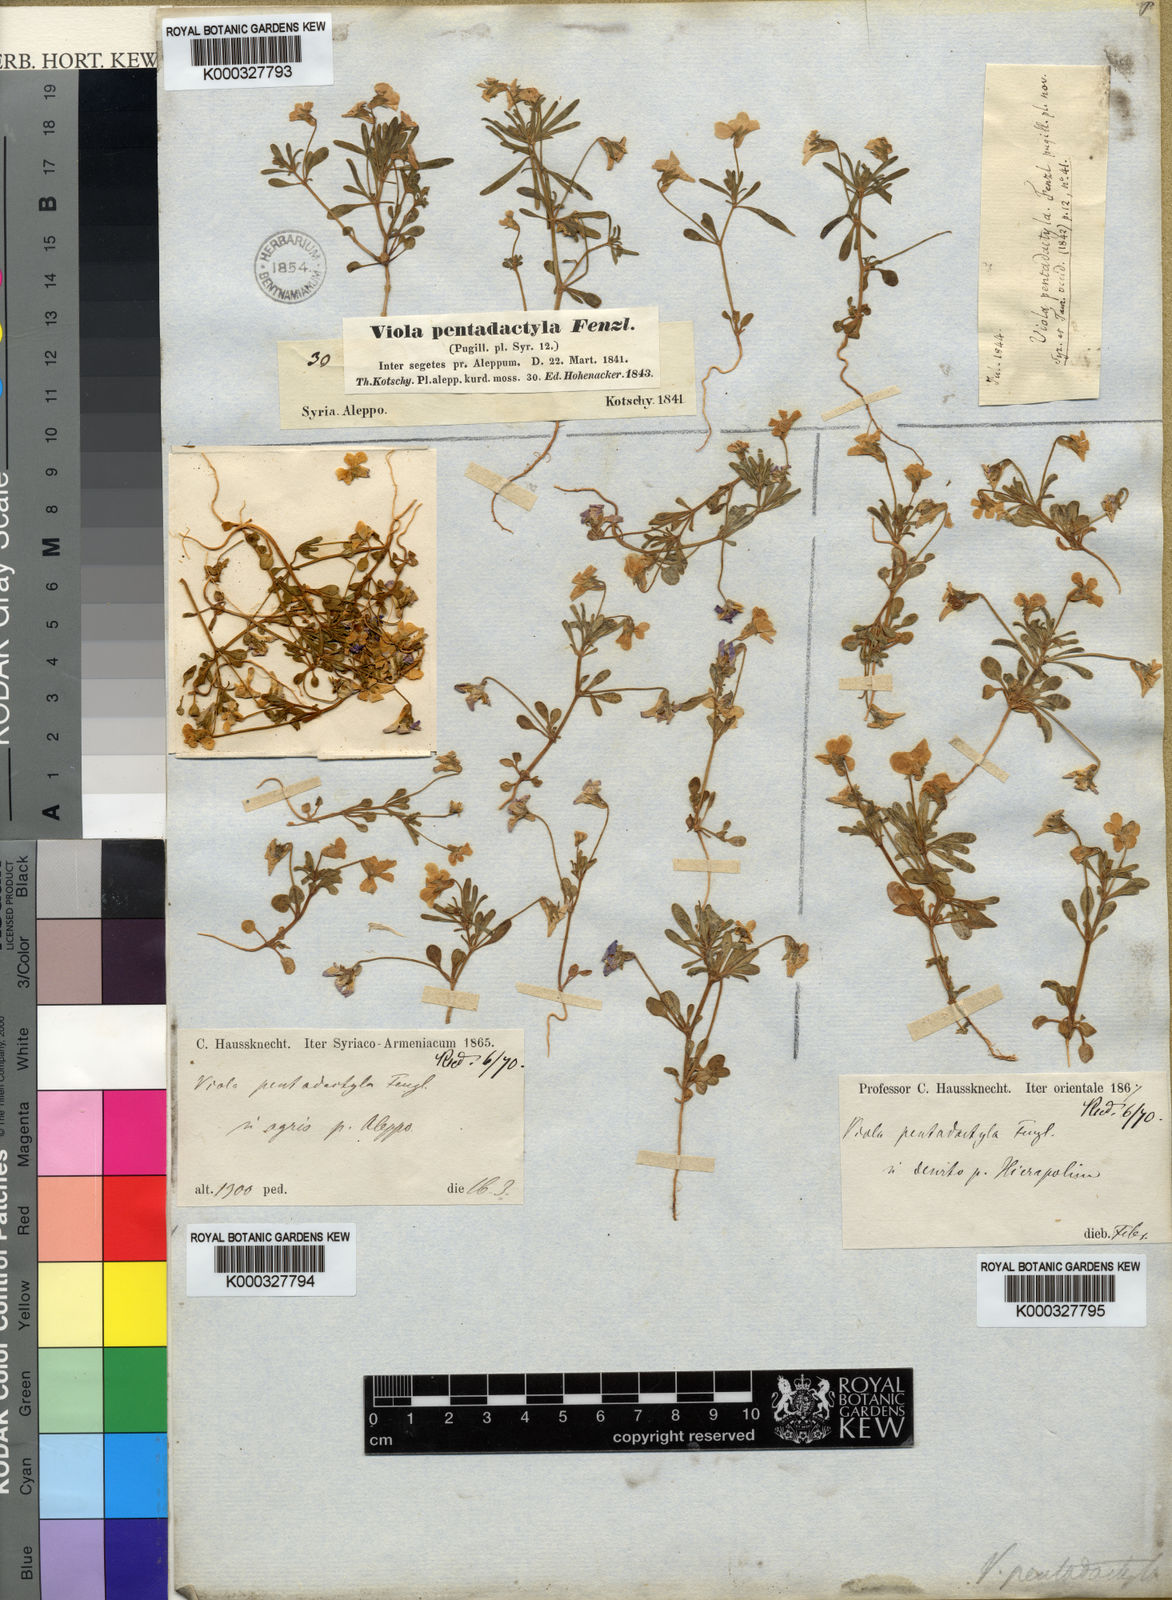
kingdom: Plantae
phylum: Tracheophyta
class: Magnoliopsida
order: Malpighiales
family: Violaceae
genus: Viola
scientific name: Viola pentadactyla
